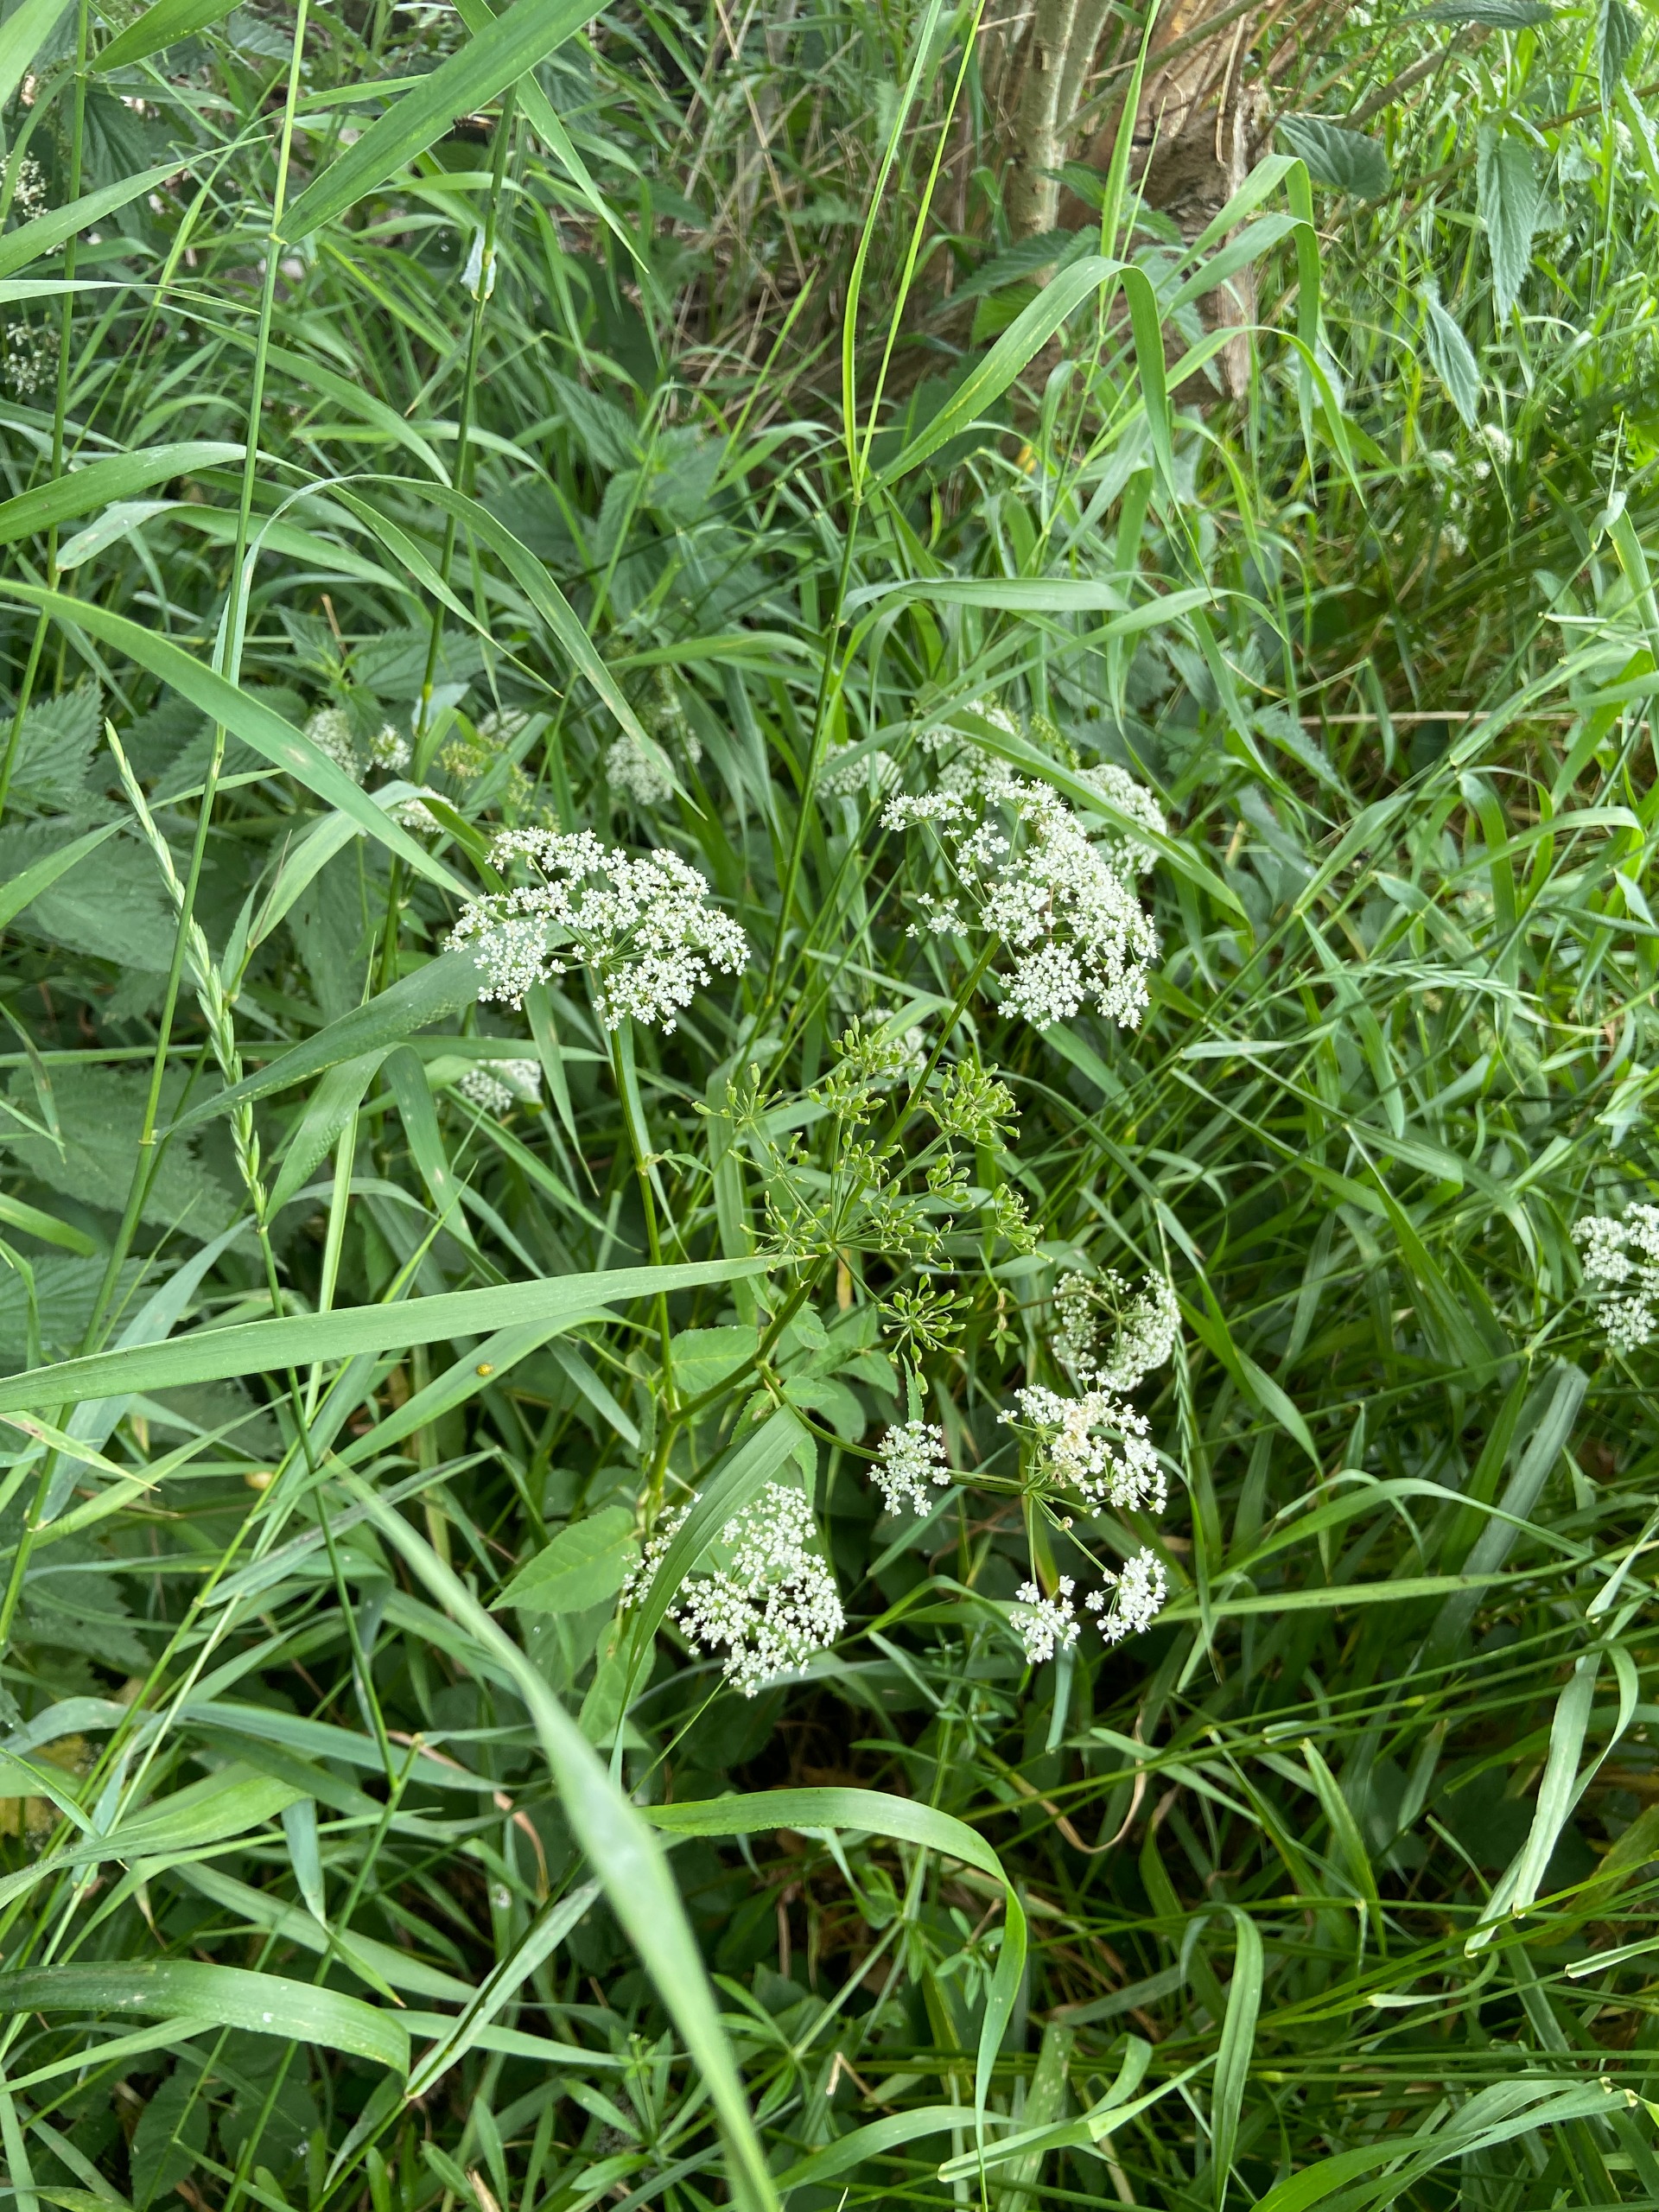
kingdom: Plantae
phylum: Tracheophyta
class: Magnoliopsida
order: Apiales
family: Apiaceae
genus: Aegopodium
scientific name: Aegopodium podagraria
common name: Skvalderkål
